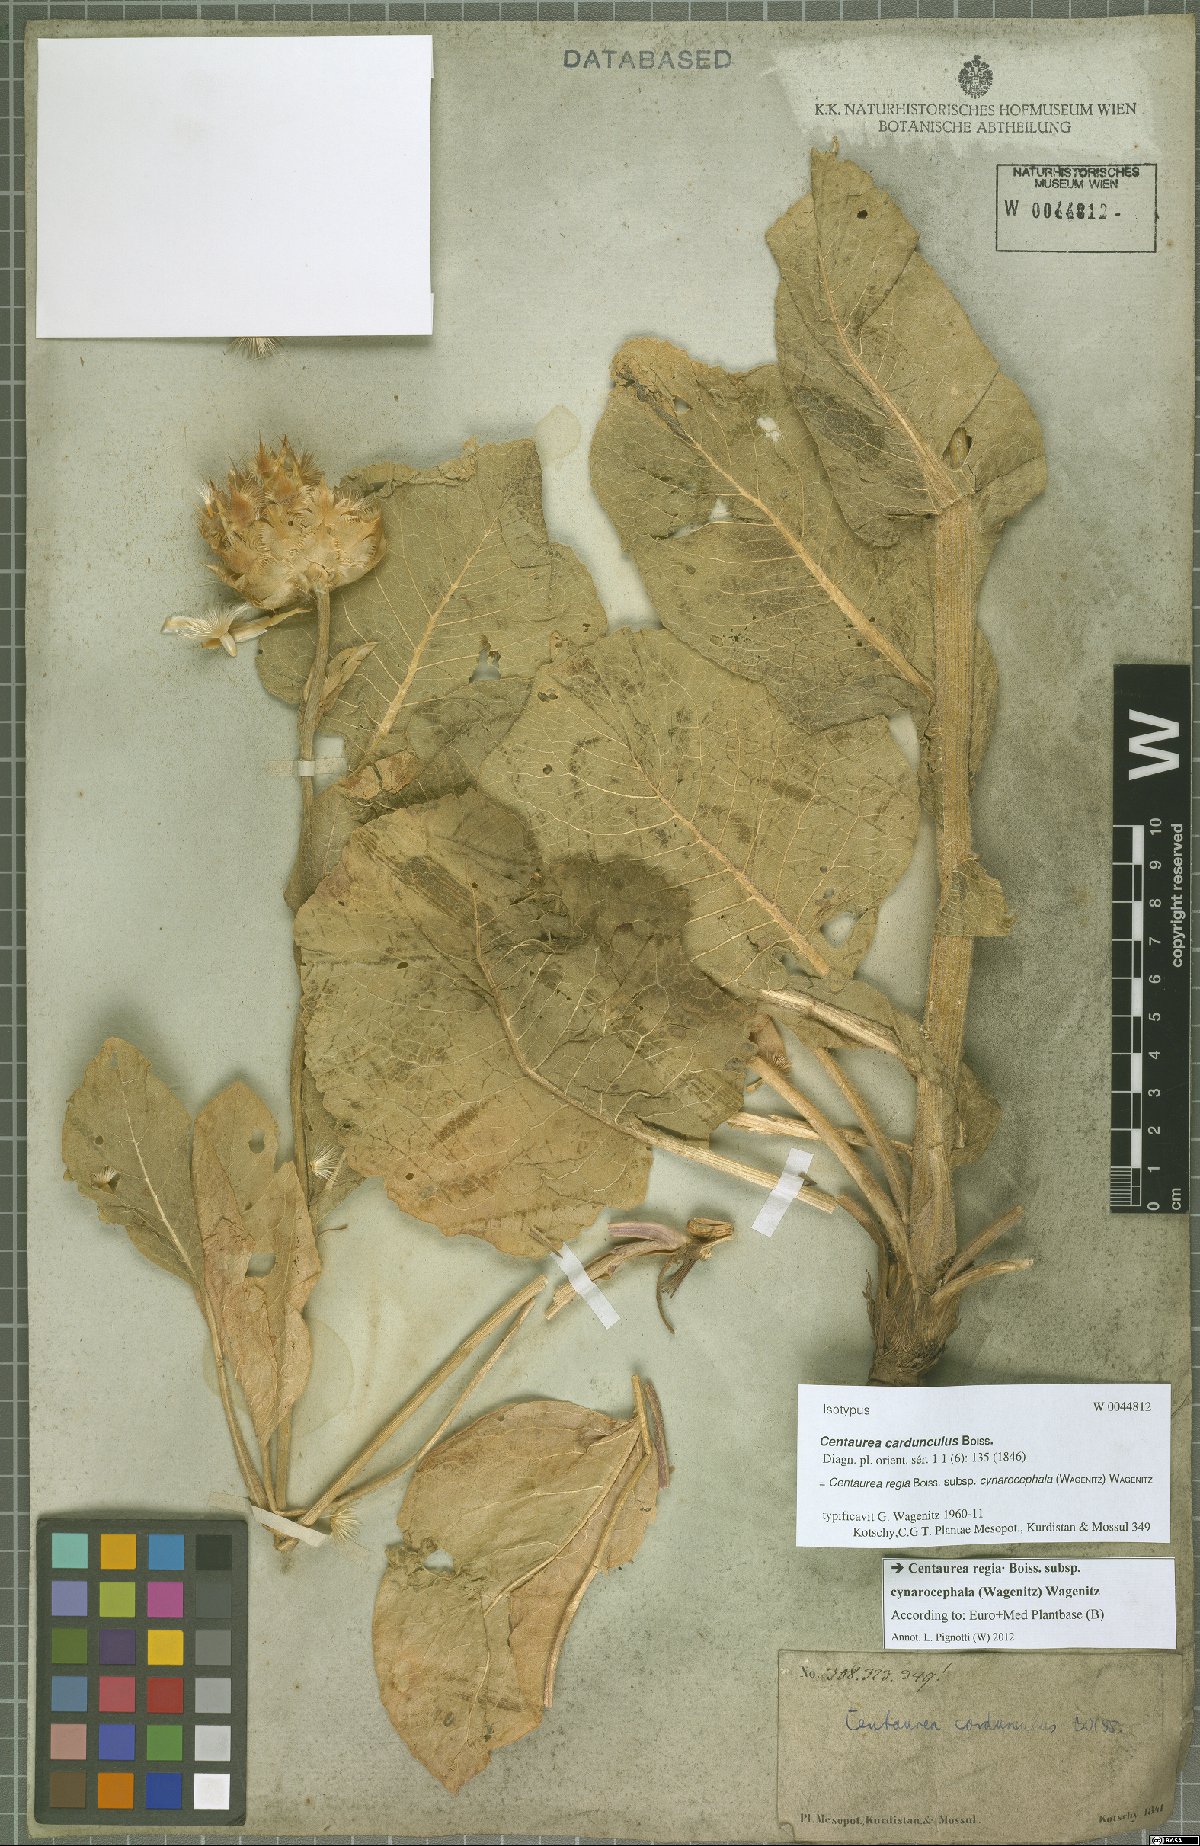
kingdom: Plantae
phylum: Tracheophyta
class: Magnoliopsida
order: Asterales
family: Asteraceae
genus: Centaurea
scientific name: Centaurea regia
